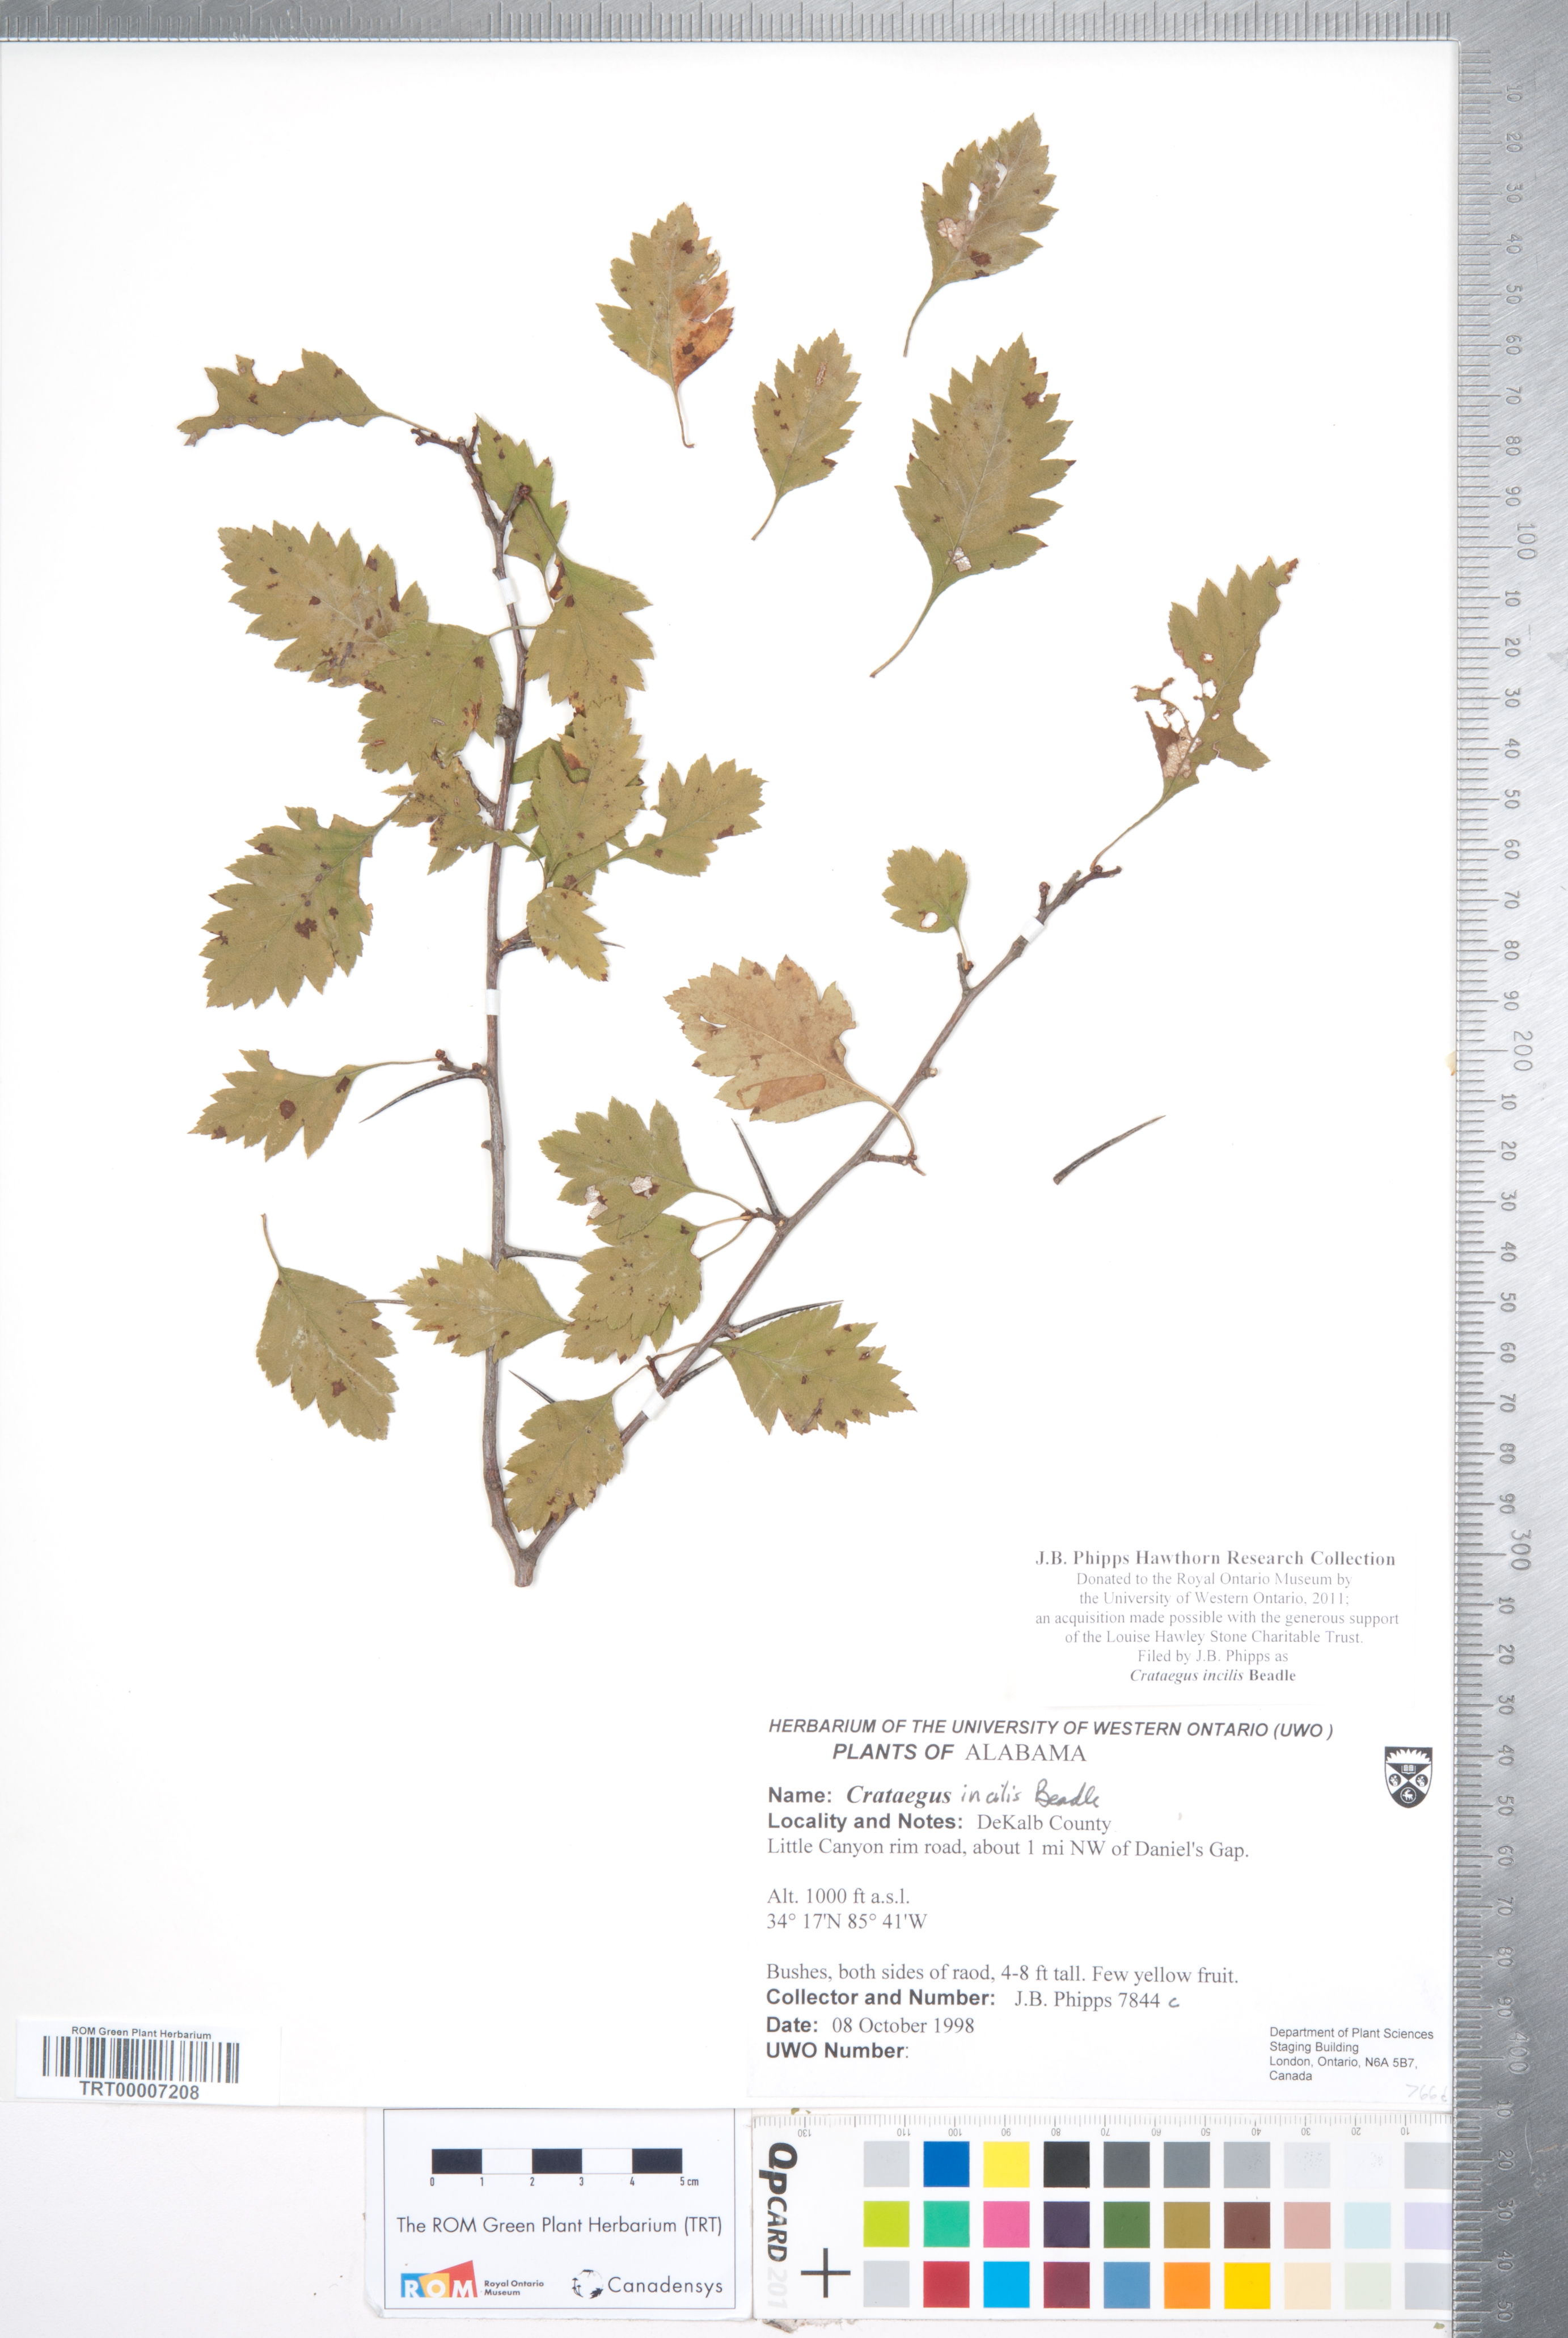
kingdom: Plantae
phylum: Tracheophyta
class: Magnoliopsida
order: Rosales
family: Rosaceae
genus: Crataegus
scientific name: Crataegus pulcherrima
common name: Beautiful hawthorn
